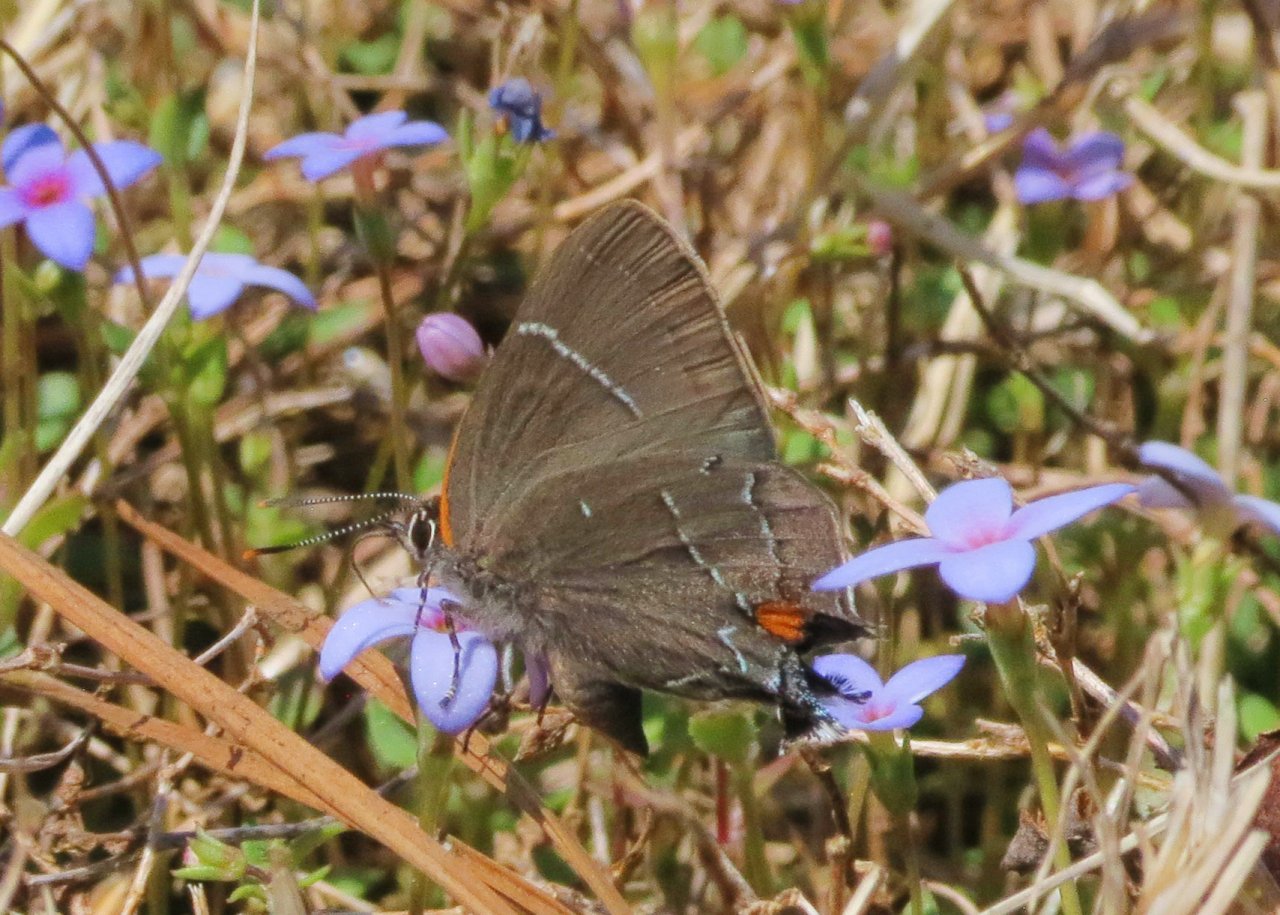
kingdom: Animalia
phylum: Arthropoda
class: Insecta
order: Lepidoptera
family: Lycaenidae
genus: Parrhasius
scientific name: Parrhasius m-album
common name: White-m Hairstreak
